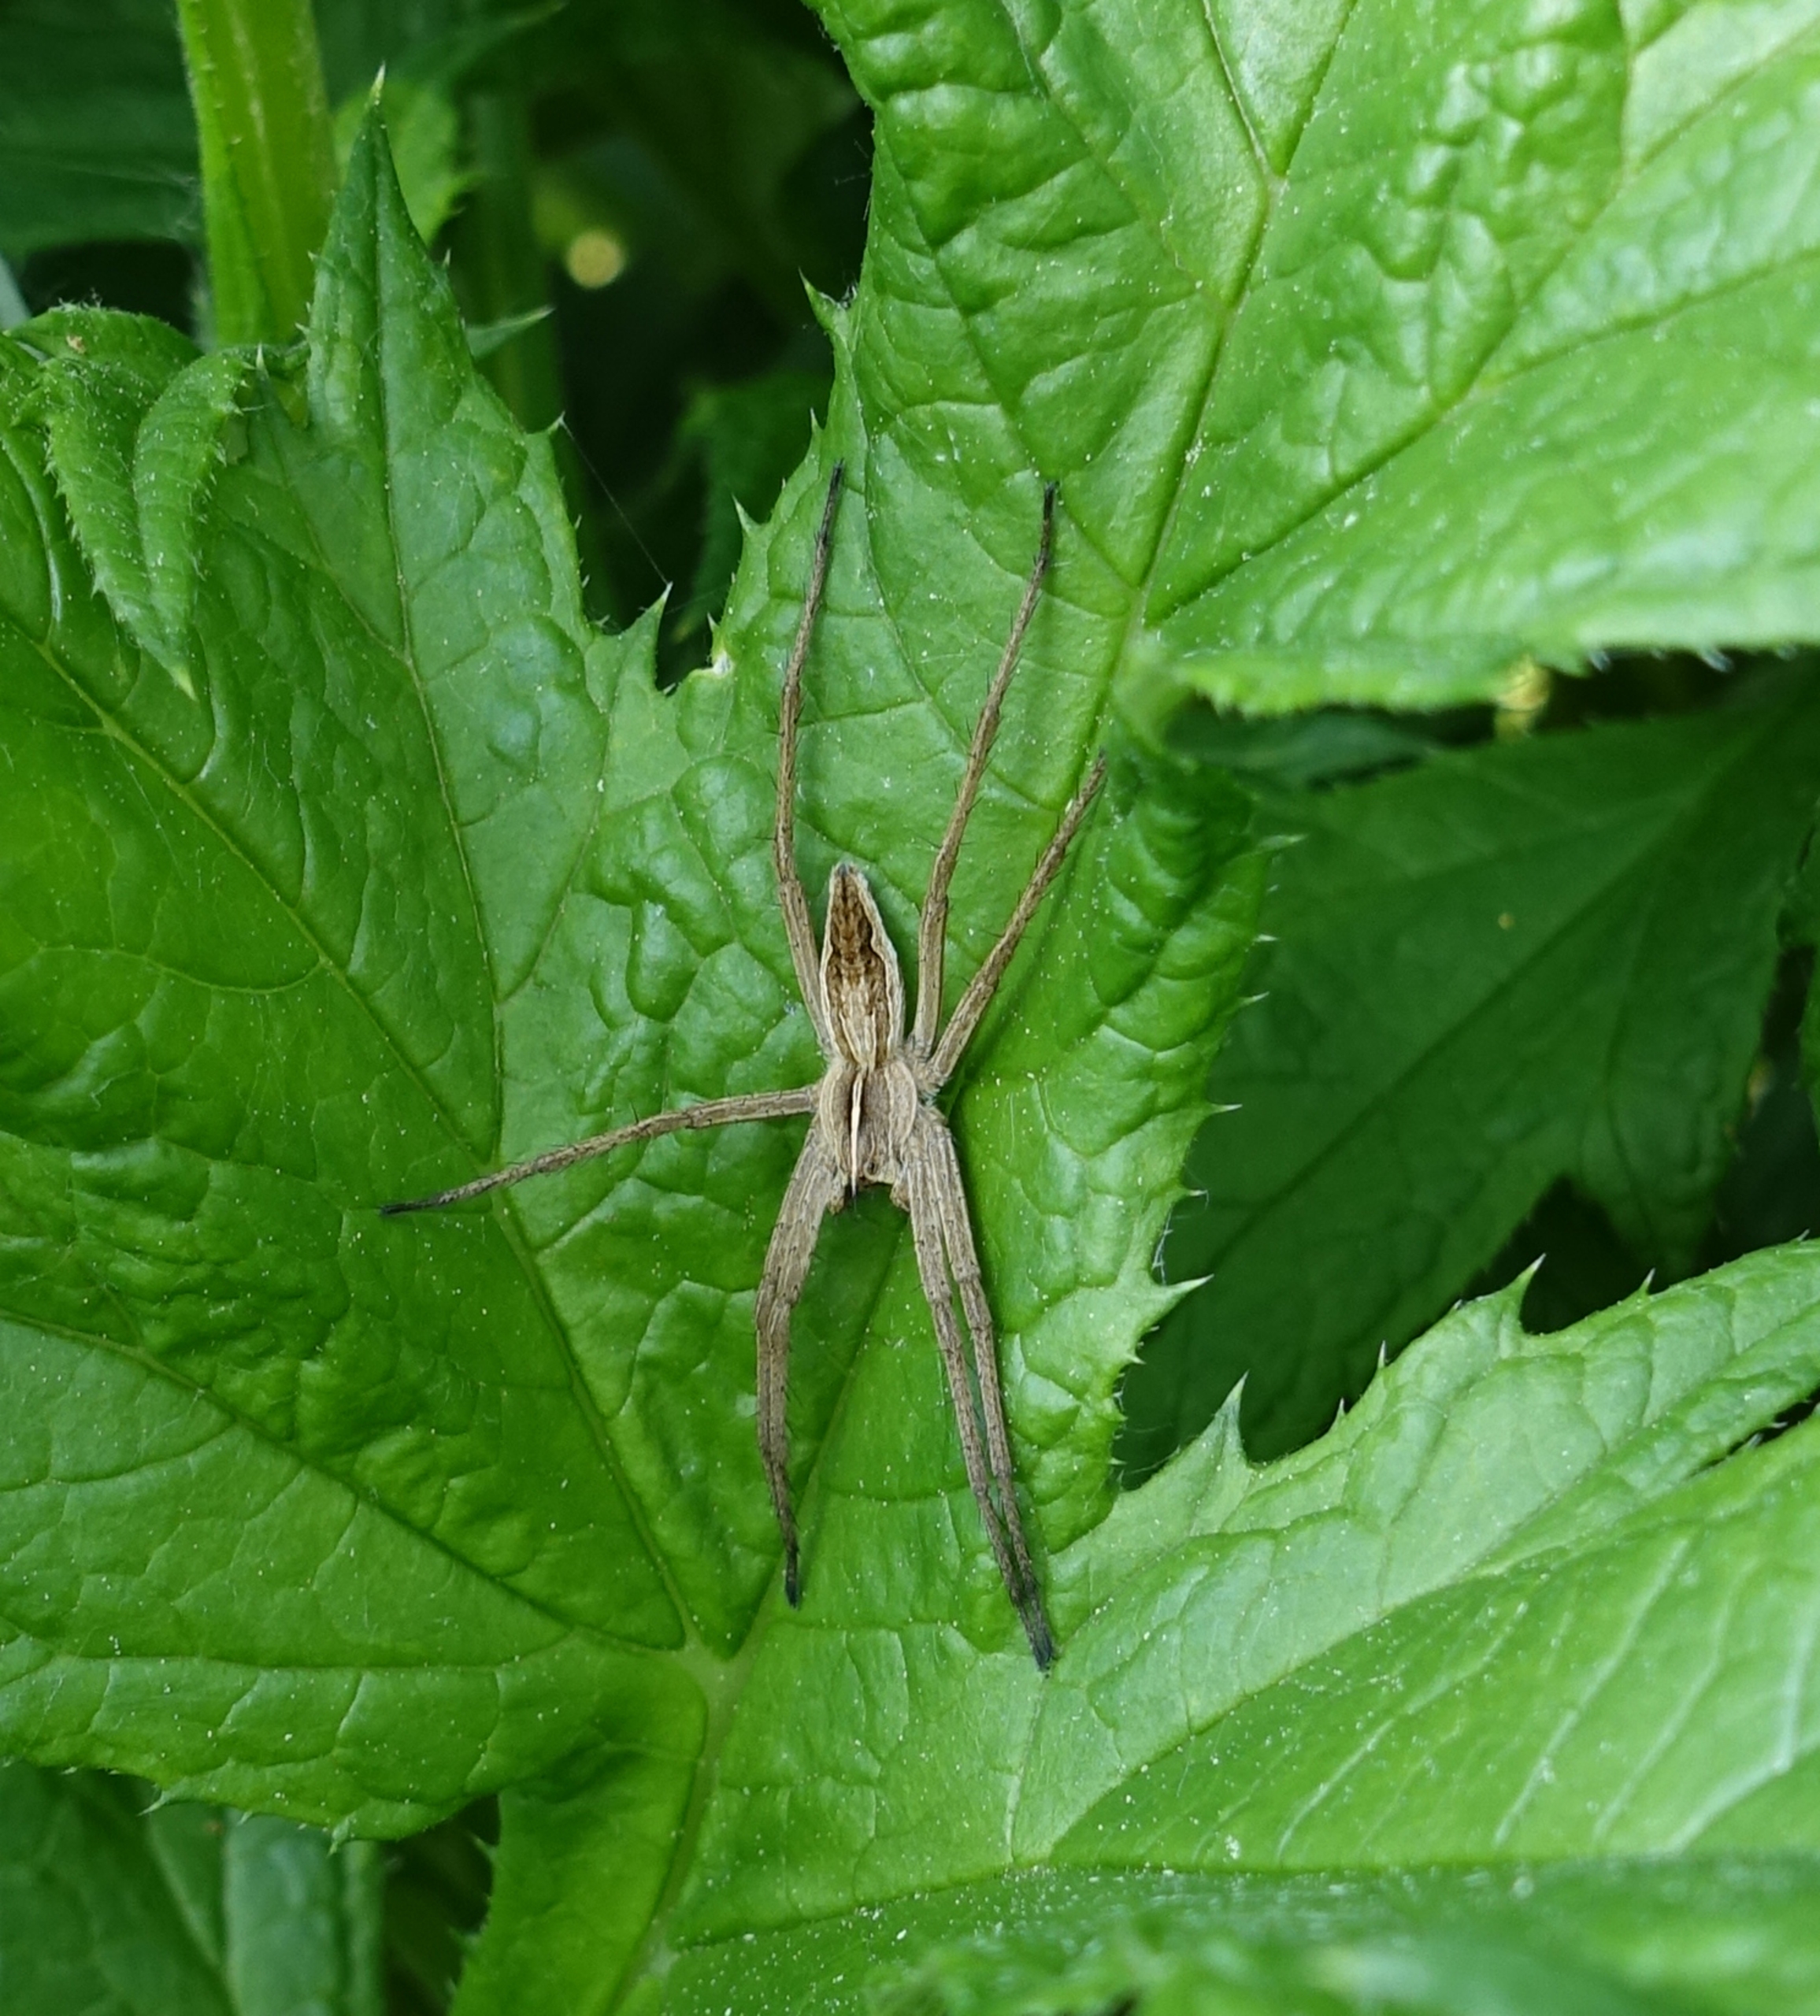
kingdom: Animalia
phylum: Arthropoda
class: Arachnida
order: Araneae
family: Pisauridae
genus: Pisaura
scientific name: Pisaura mirabilis
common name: Almindelig rovedderkop
